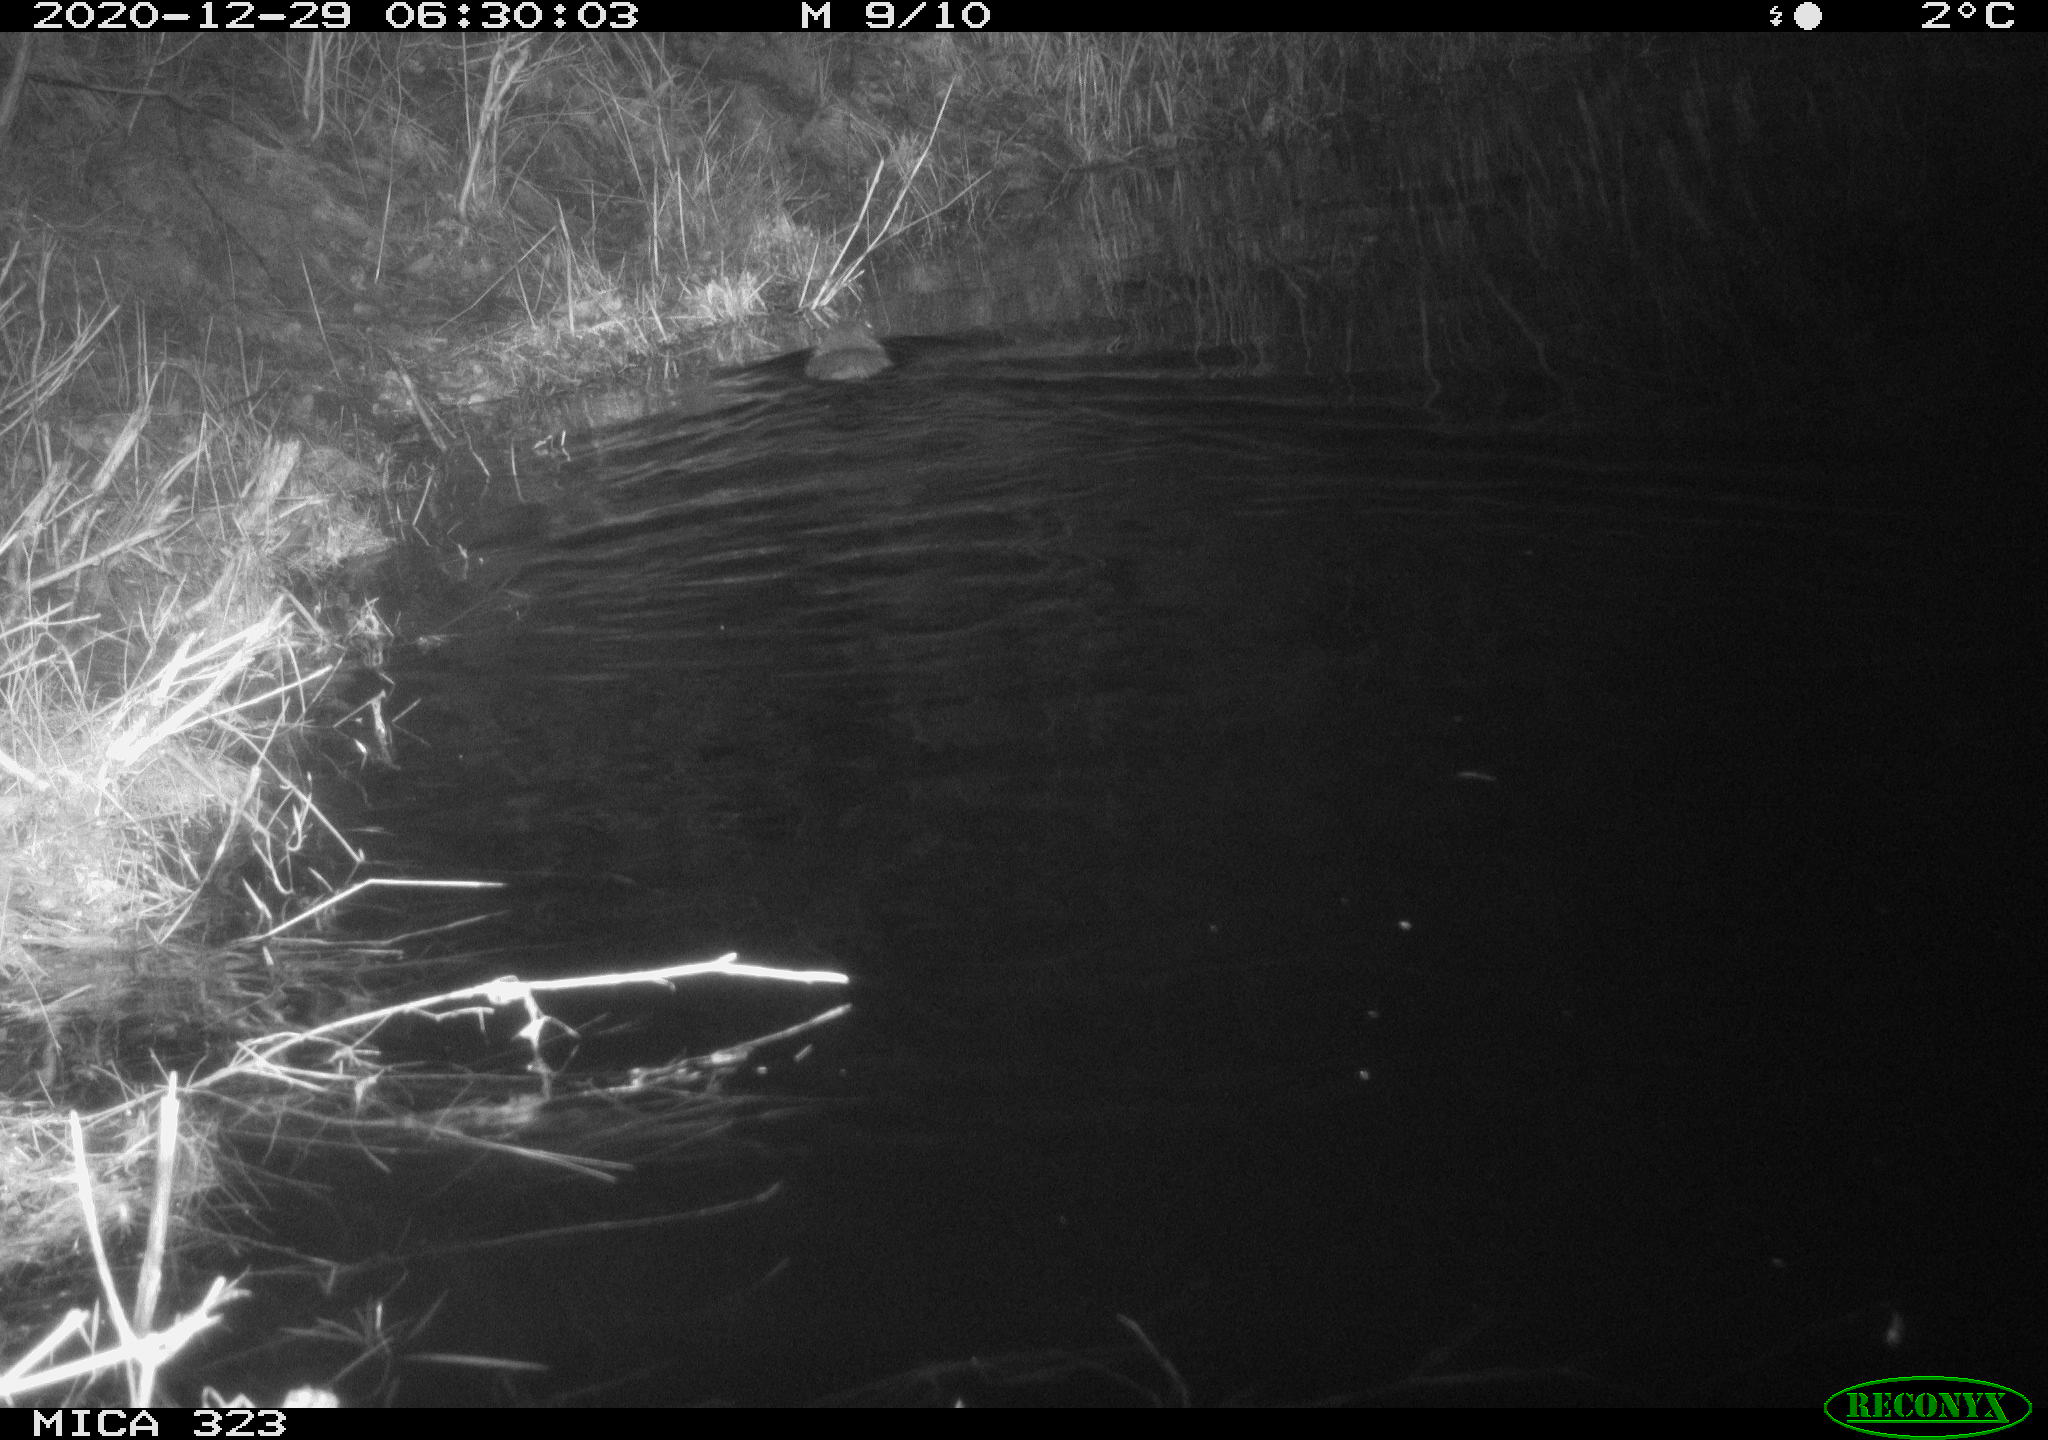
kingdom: Animalia
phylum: Chordata
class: Mammalia
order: Rodentia
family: Myocastoridae
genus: Myocastor
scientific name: Myocastor coypus
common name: Coypu
